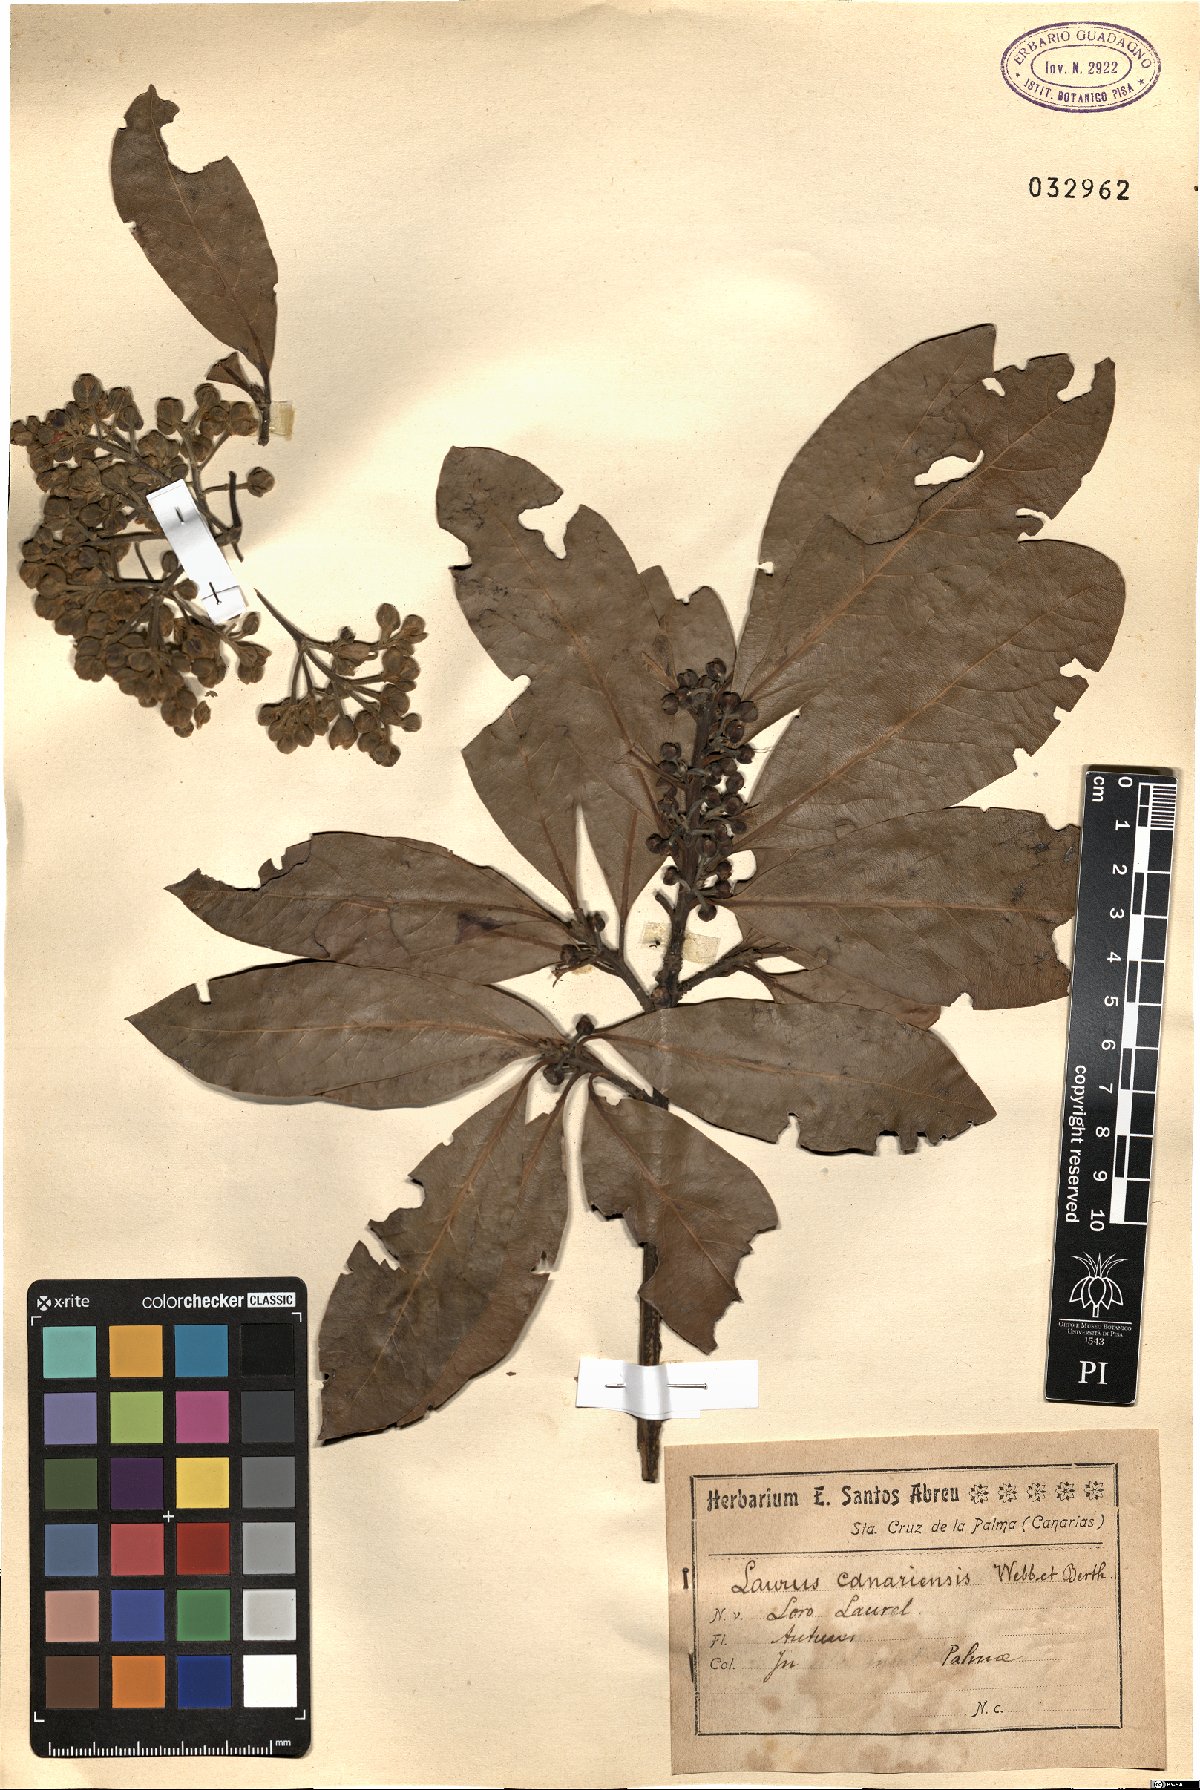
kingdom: Plantae
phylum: Tracheophyta
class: Magnoliopsida
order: Laurales
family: Lauraceae
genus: Laurus
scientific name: Laurus nobilis
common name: Bay
